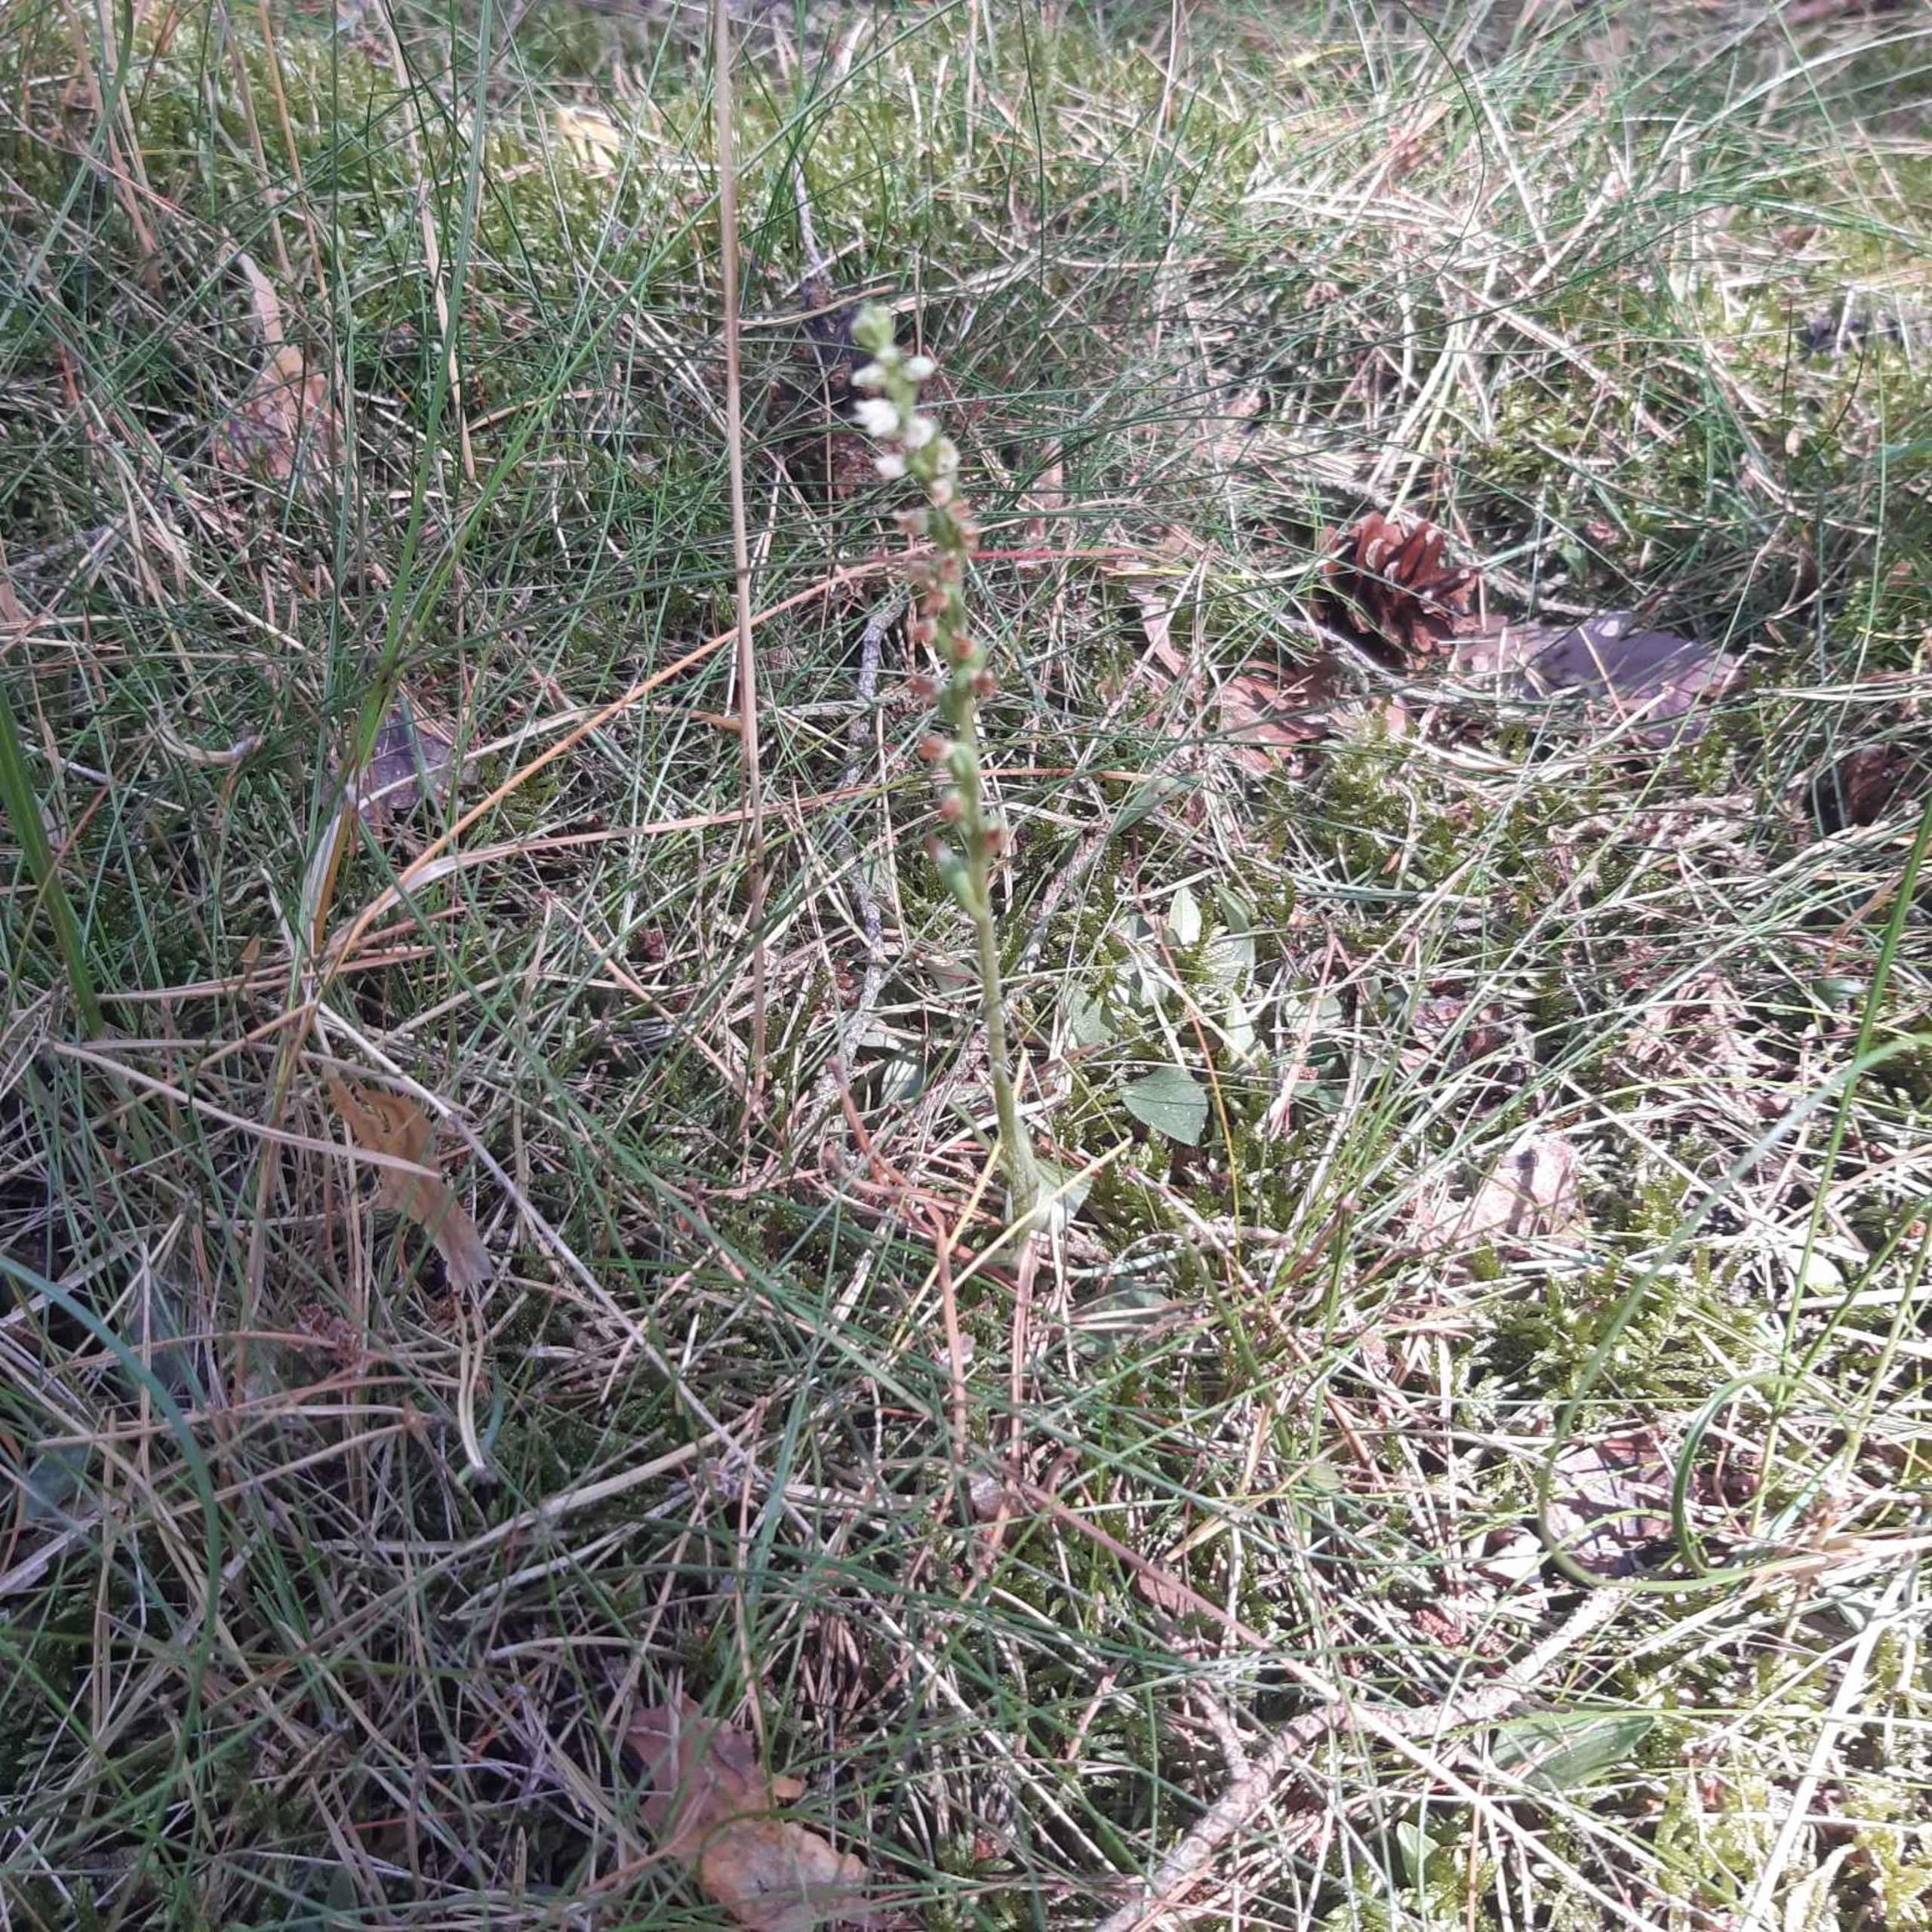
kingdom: Plantae
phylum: Tracheophyta
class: Liliopsida
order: Asparagales
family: Orchidaceae
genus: Goodyera
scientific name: Goodyera repens
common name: Knærod
